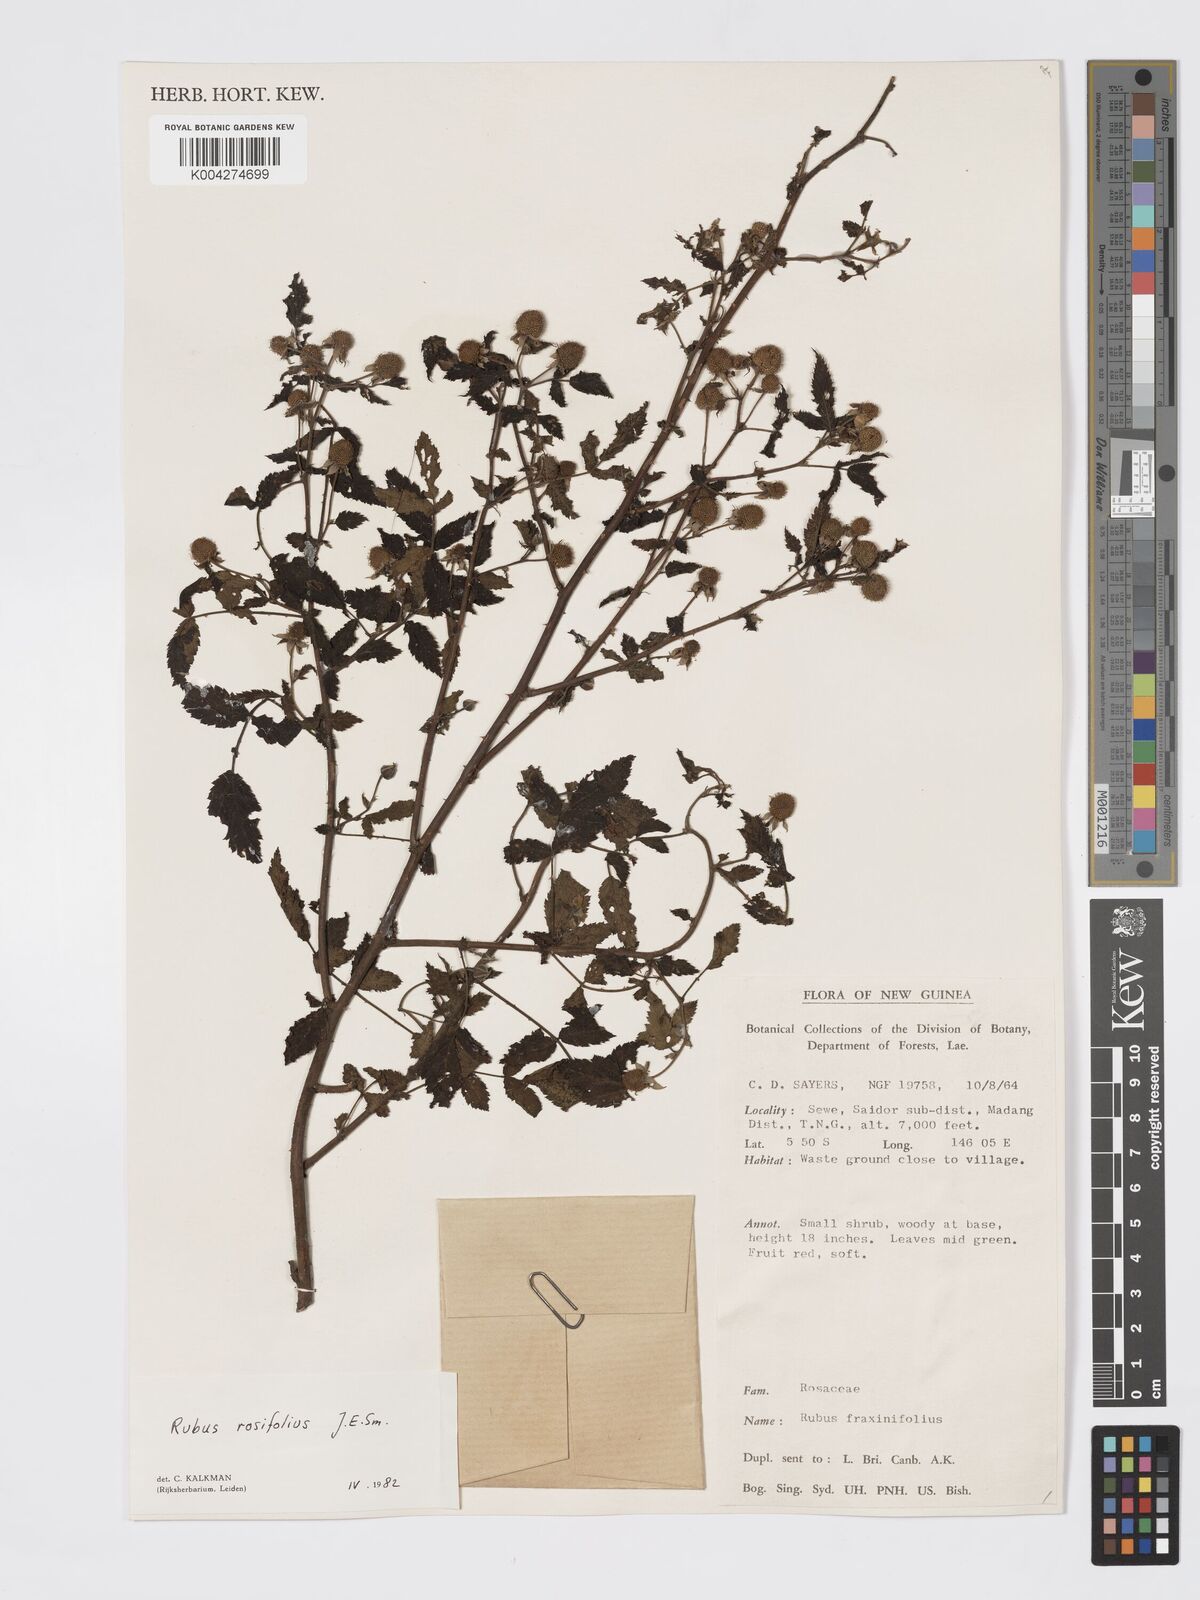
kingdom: Plantae
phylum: Tracheophyta
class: Magnoliopsida
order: Rosales
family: Rosaceae
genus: Rubus
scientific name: Rubus
